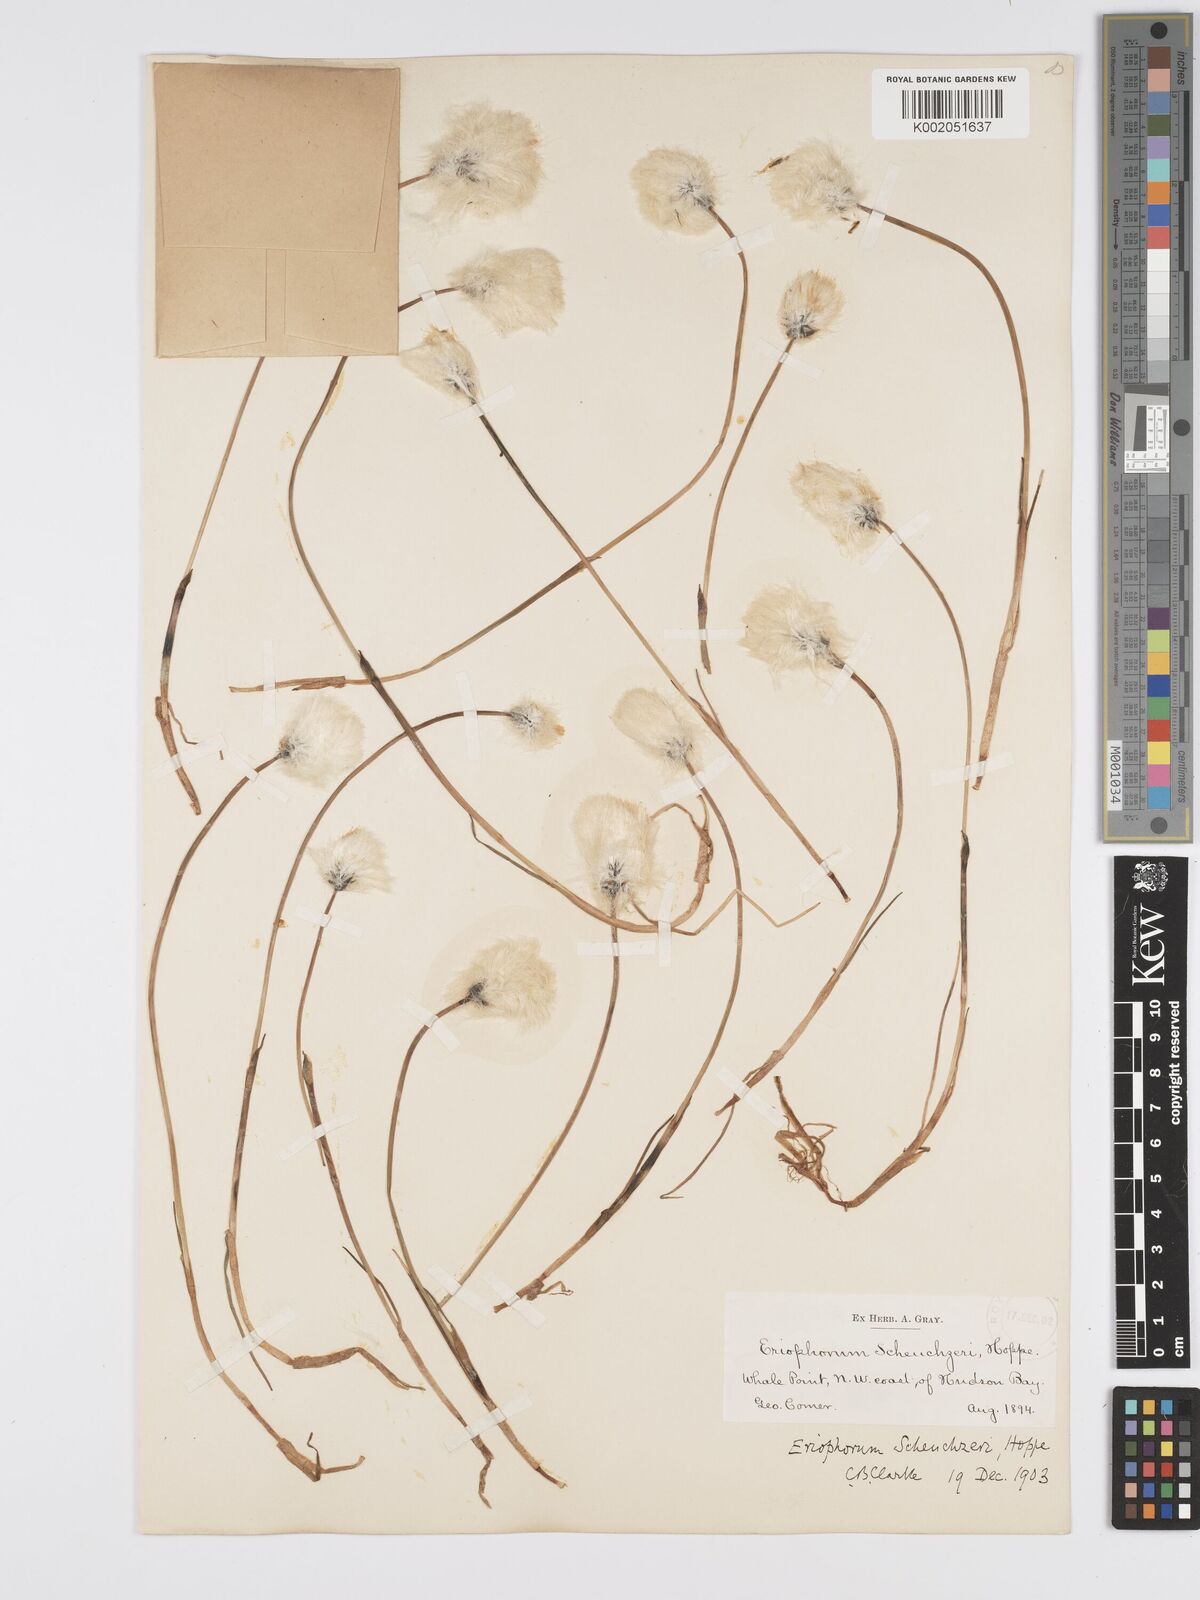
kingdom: Plantae
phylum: Tracheophyta
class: Liliopsida
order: Poales
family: Cyperaceae
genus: Eriophorum
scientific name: Eriophorum scheuchzeri
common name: Scheuchzer's cottongrass
